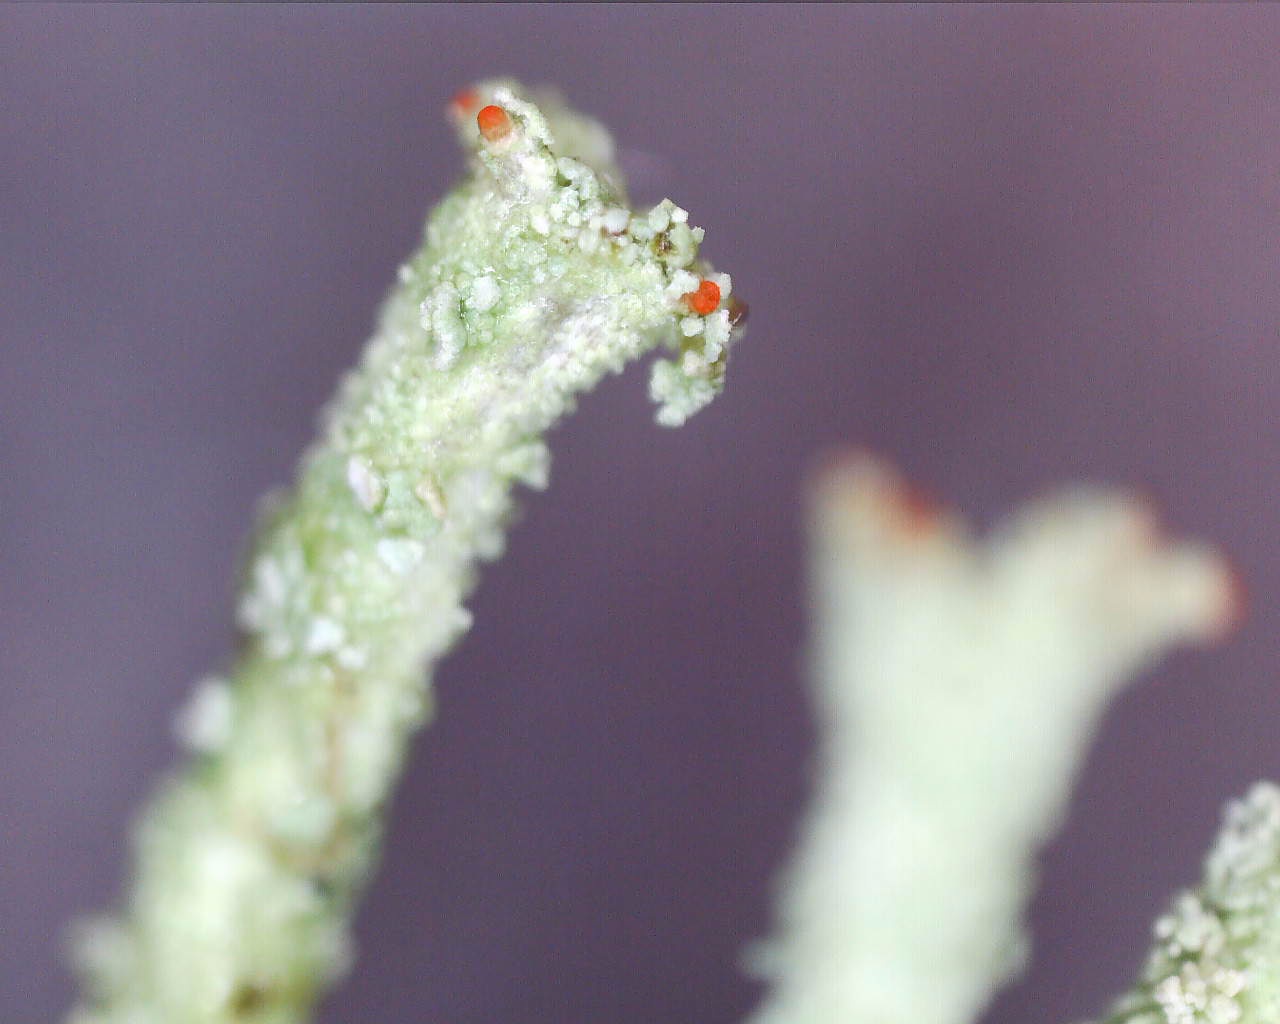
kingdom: Fungi
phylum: Ascomycota
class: Lecanoromycetes
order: Lecanorales
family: Cladoniaceae
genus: Cladonia
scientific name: Cladonia polydactyla
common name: vifte-bægerlav
